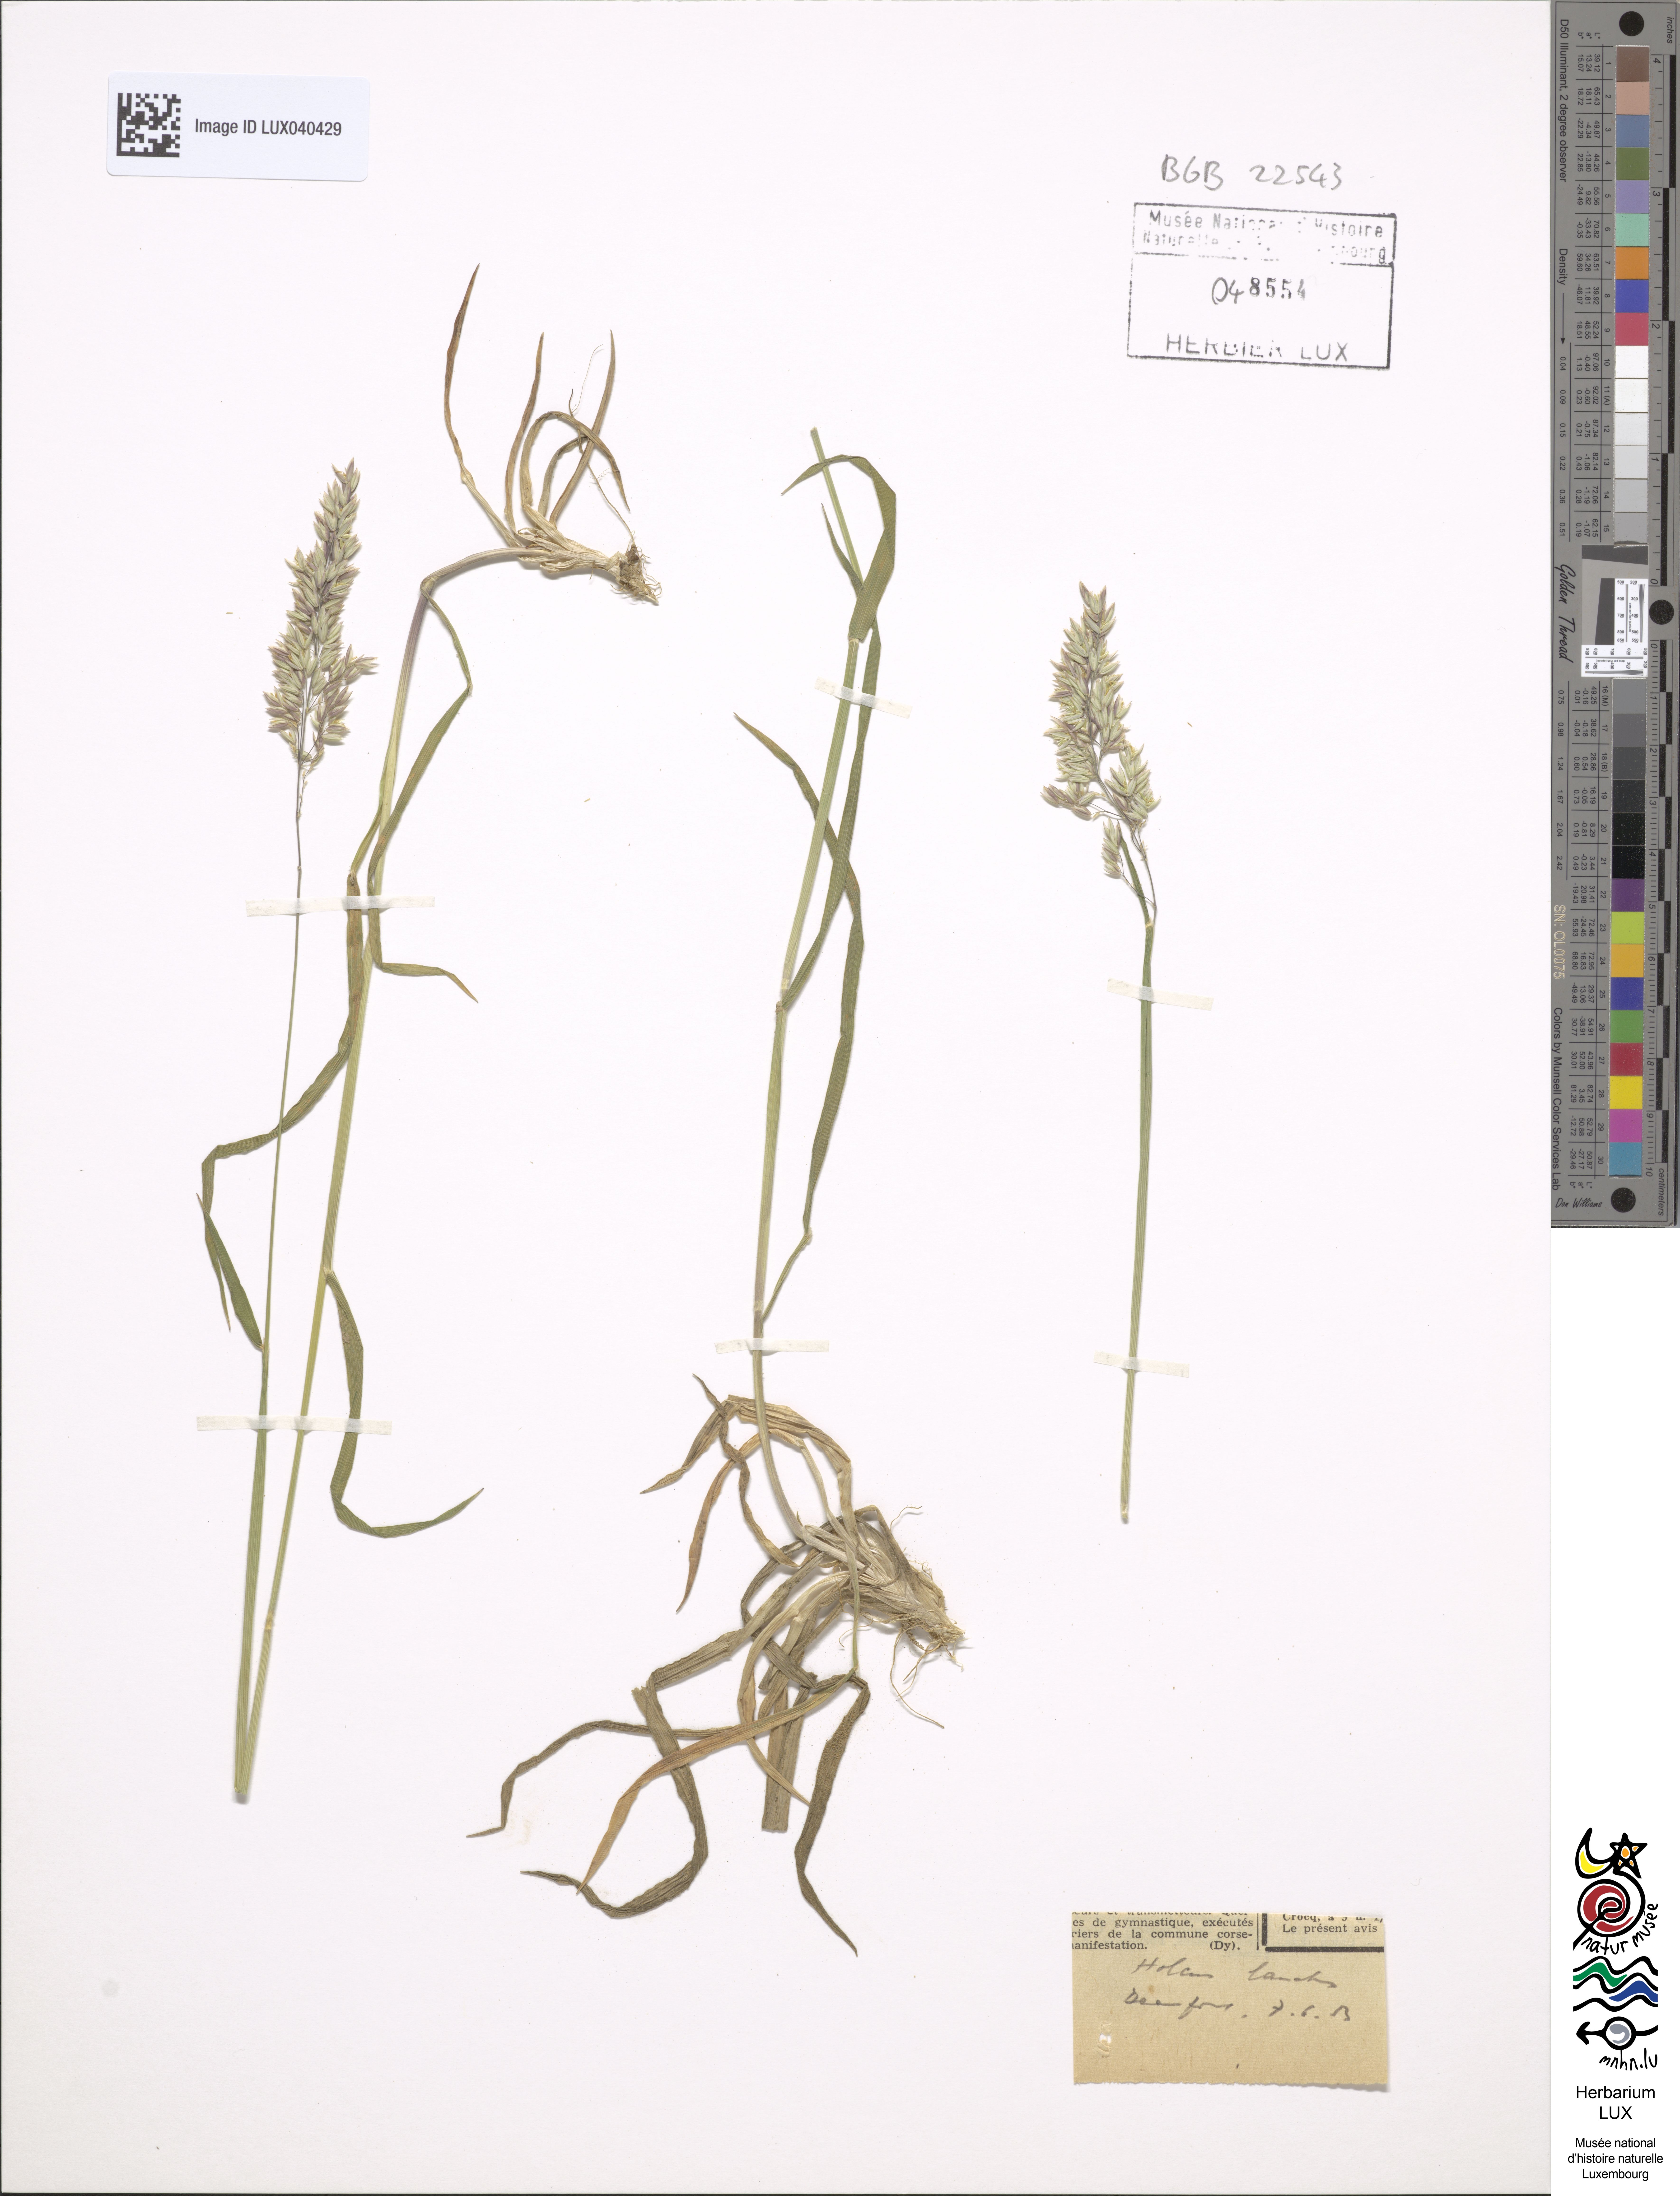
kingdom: Plantae
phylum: Tracheophyta
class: Liliopsida
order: Poales
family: Poaceae
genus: Holcus
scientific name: Holcus lanatus
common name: Yorkshire-fog
